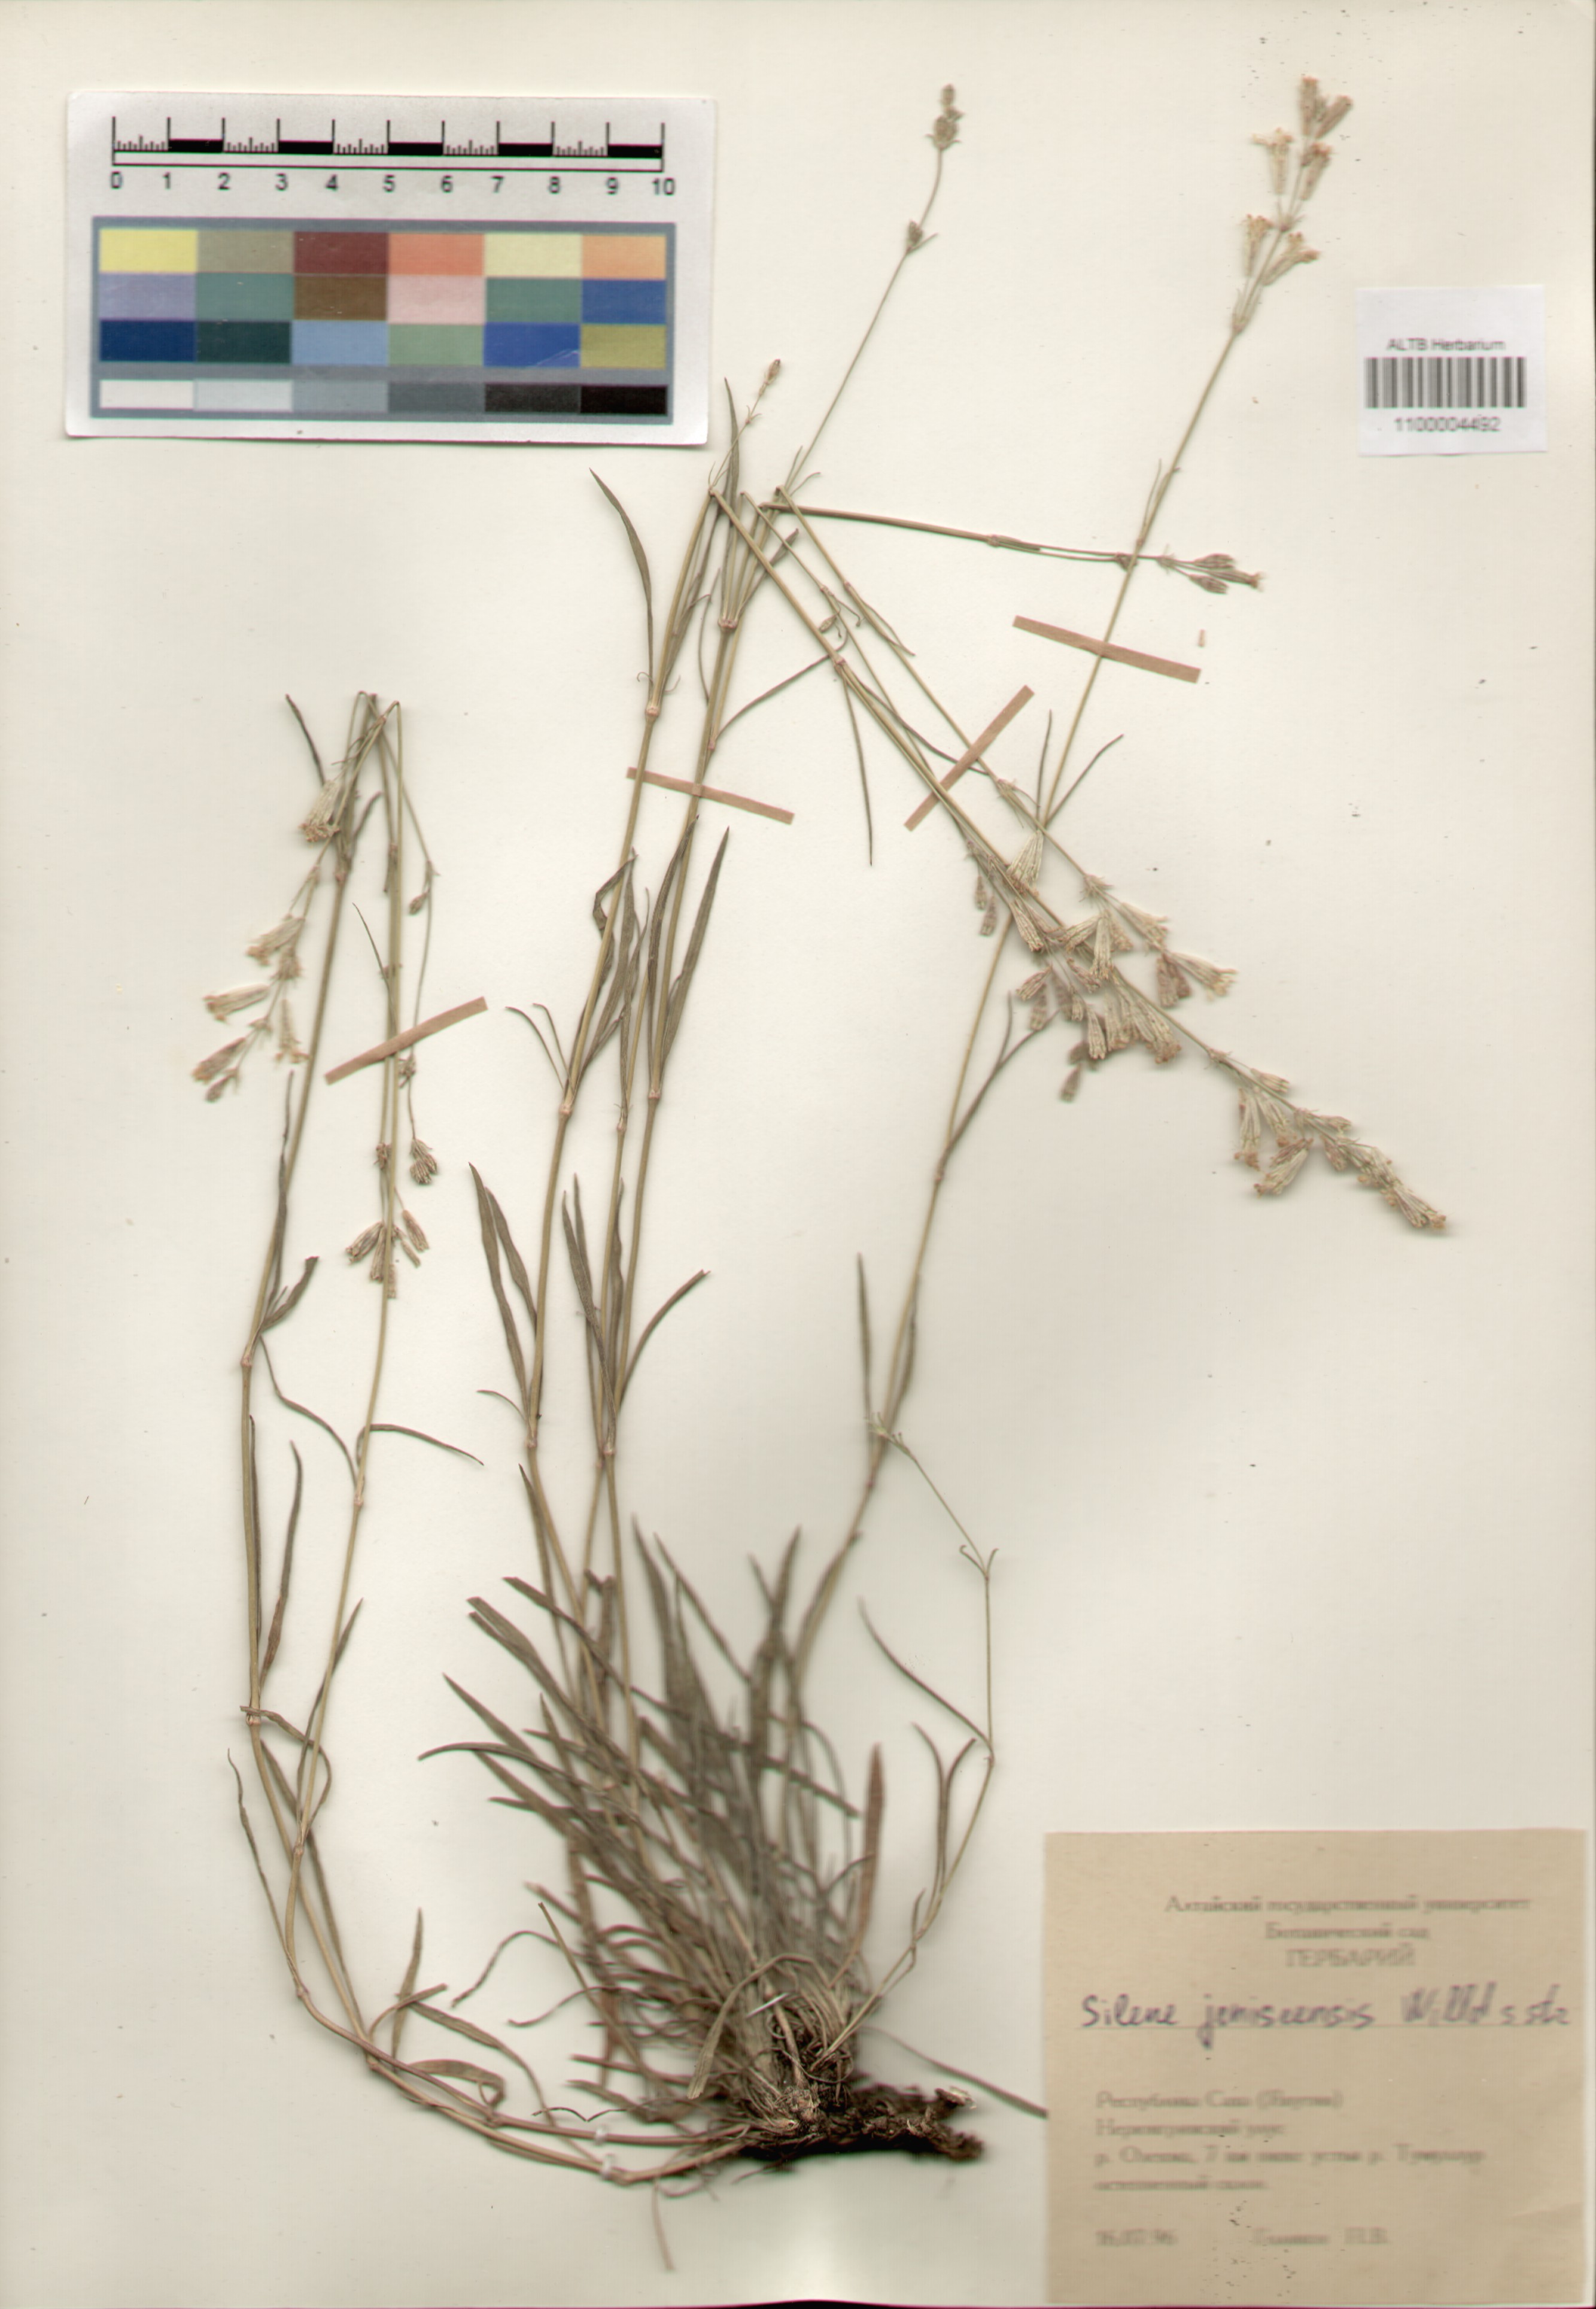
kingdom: Plantae
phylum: Tracheophyta
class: Magnoliopsida
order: Caryophyllales
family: Caryophyllaceae
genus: Silene
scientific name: Silene jeniseensis
